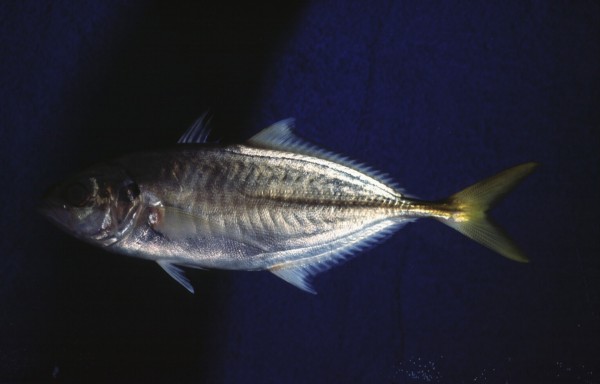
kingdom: Animalia
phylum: Chordata
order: Perciformes
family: Carangidae
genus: Alepes
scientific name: Alepes djedaba
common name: Shrimp scad
